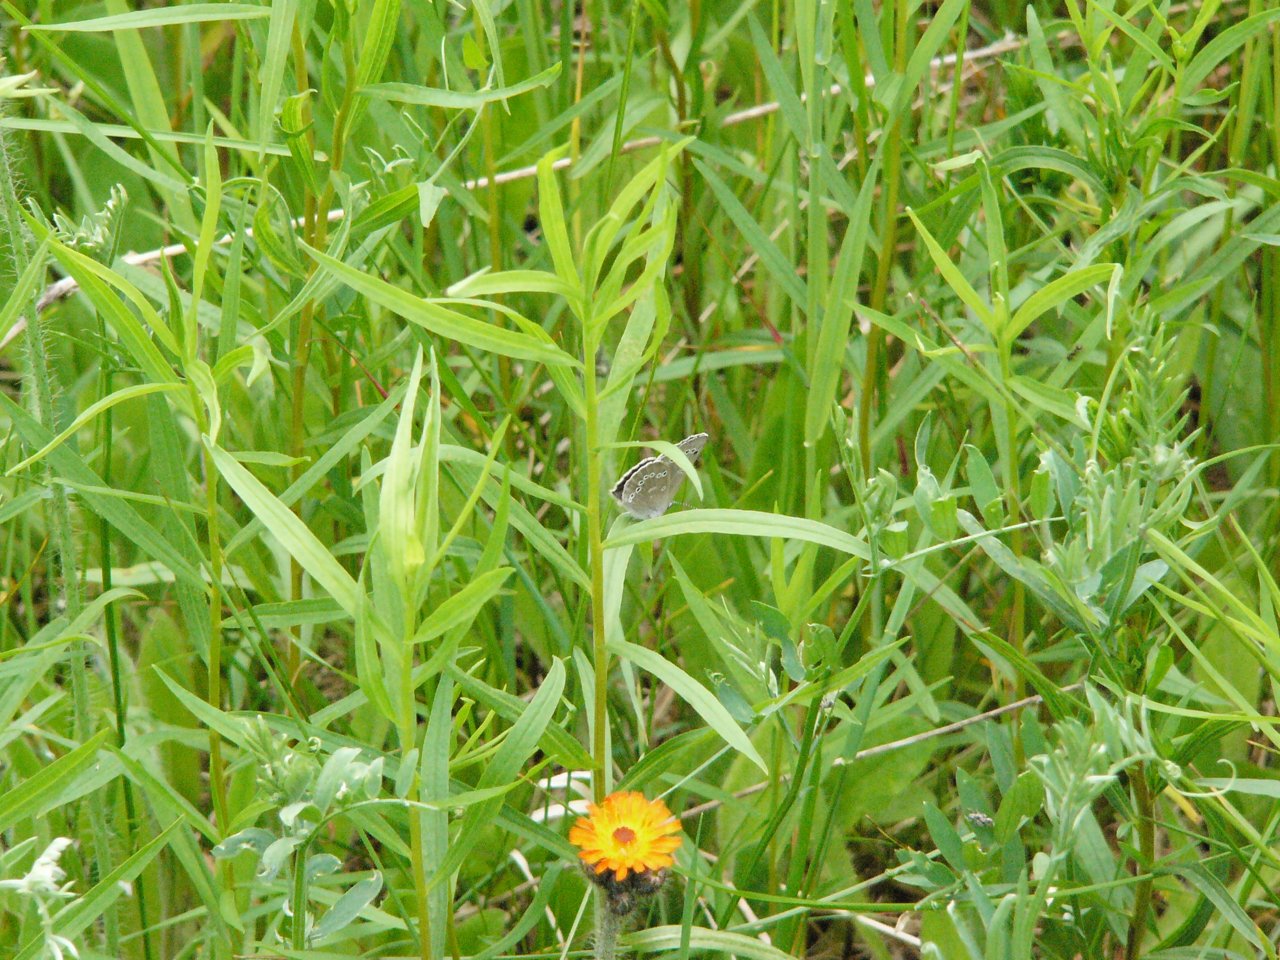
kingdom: Animalia
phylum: Arthropoda
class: Insecta
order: Lepidoptera
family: Lycaenidae
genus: Glaucopsyche
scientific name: Glaucopsyche lygdamus
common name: Silvery Blue
